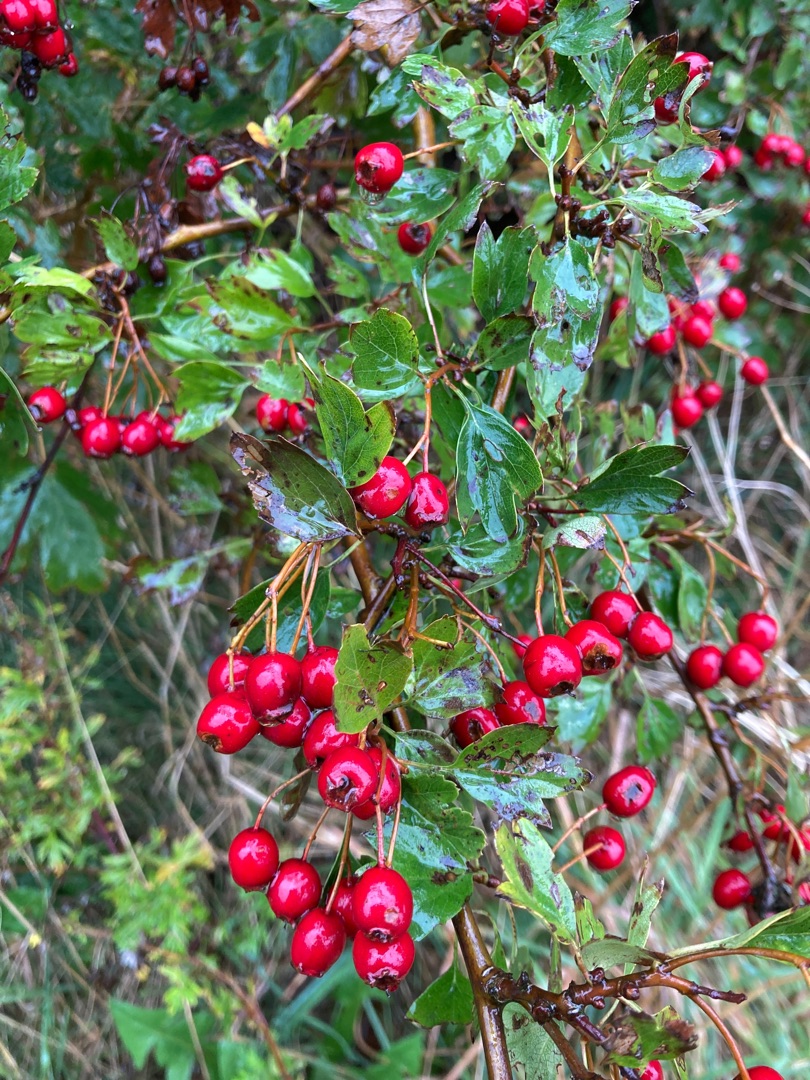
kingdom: Plantae
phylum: Tracheophyta
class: Magnoliopsida
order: Rosales
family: Rosaceae
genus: Crataegus
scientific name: Crataegus monogyna
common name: Engriflet hvidtjørn
